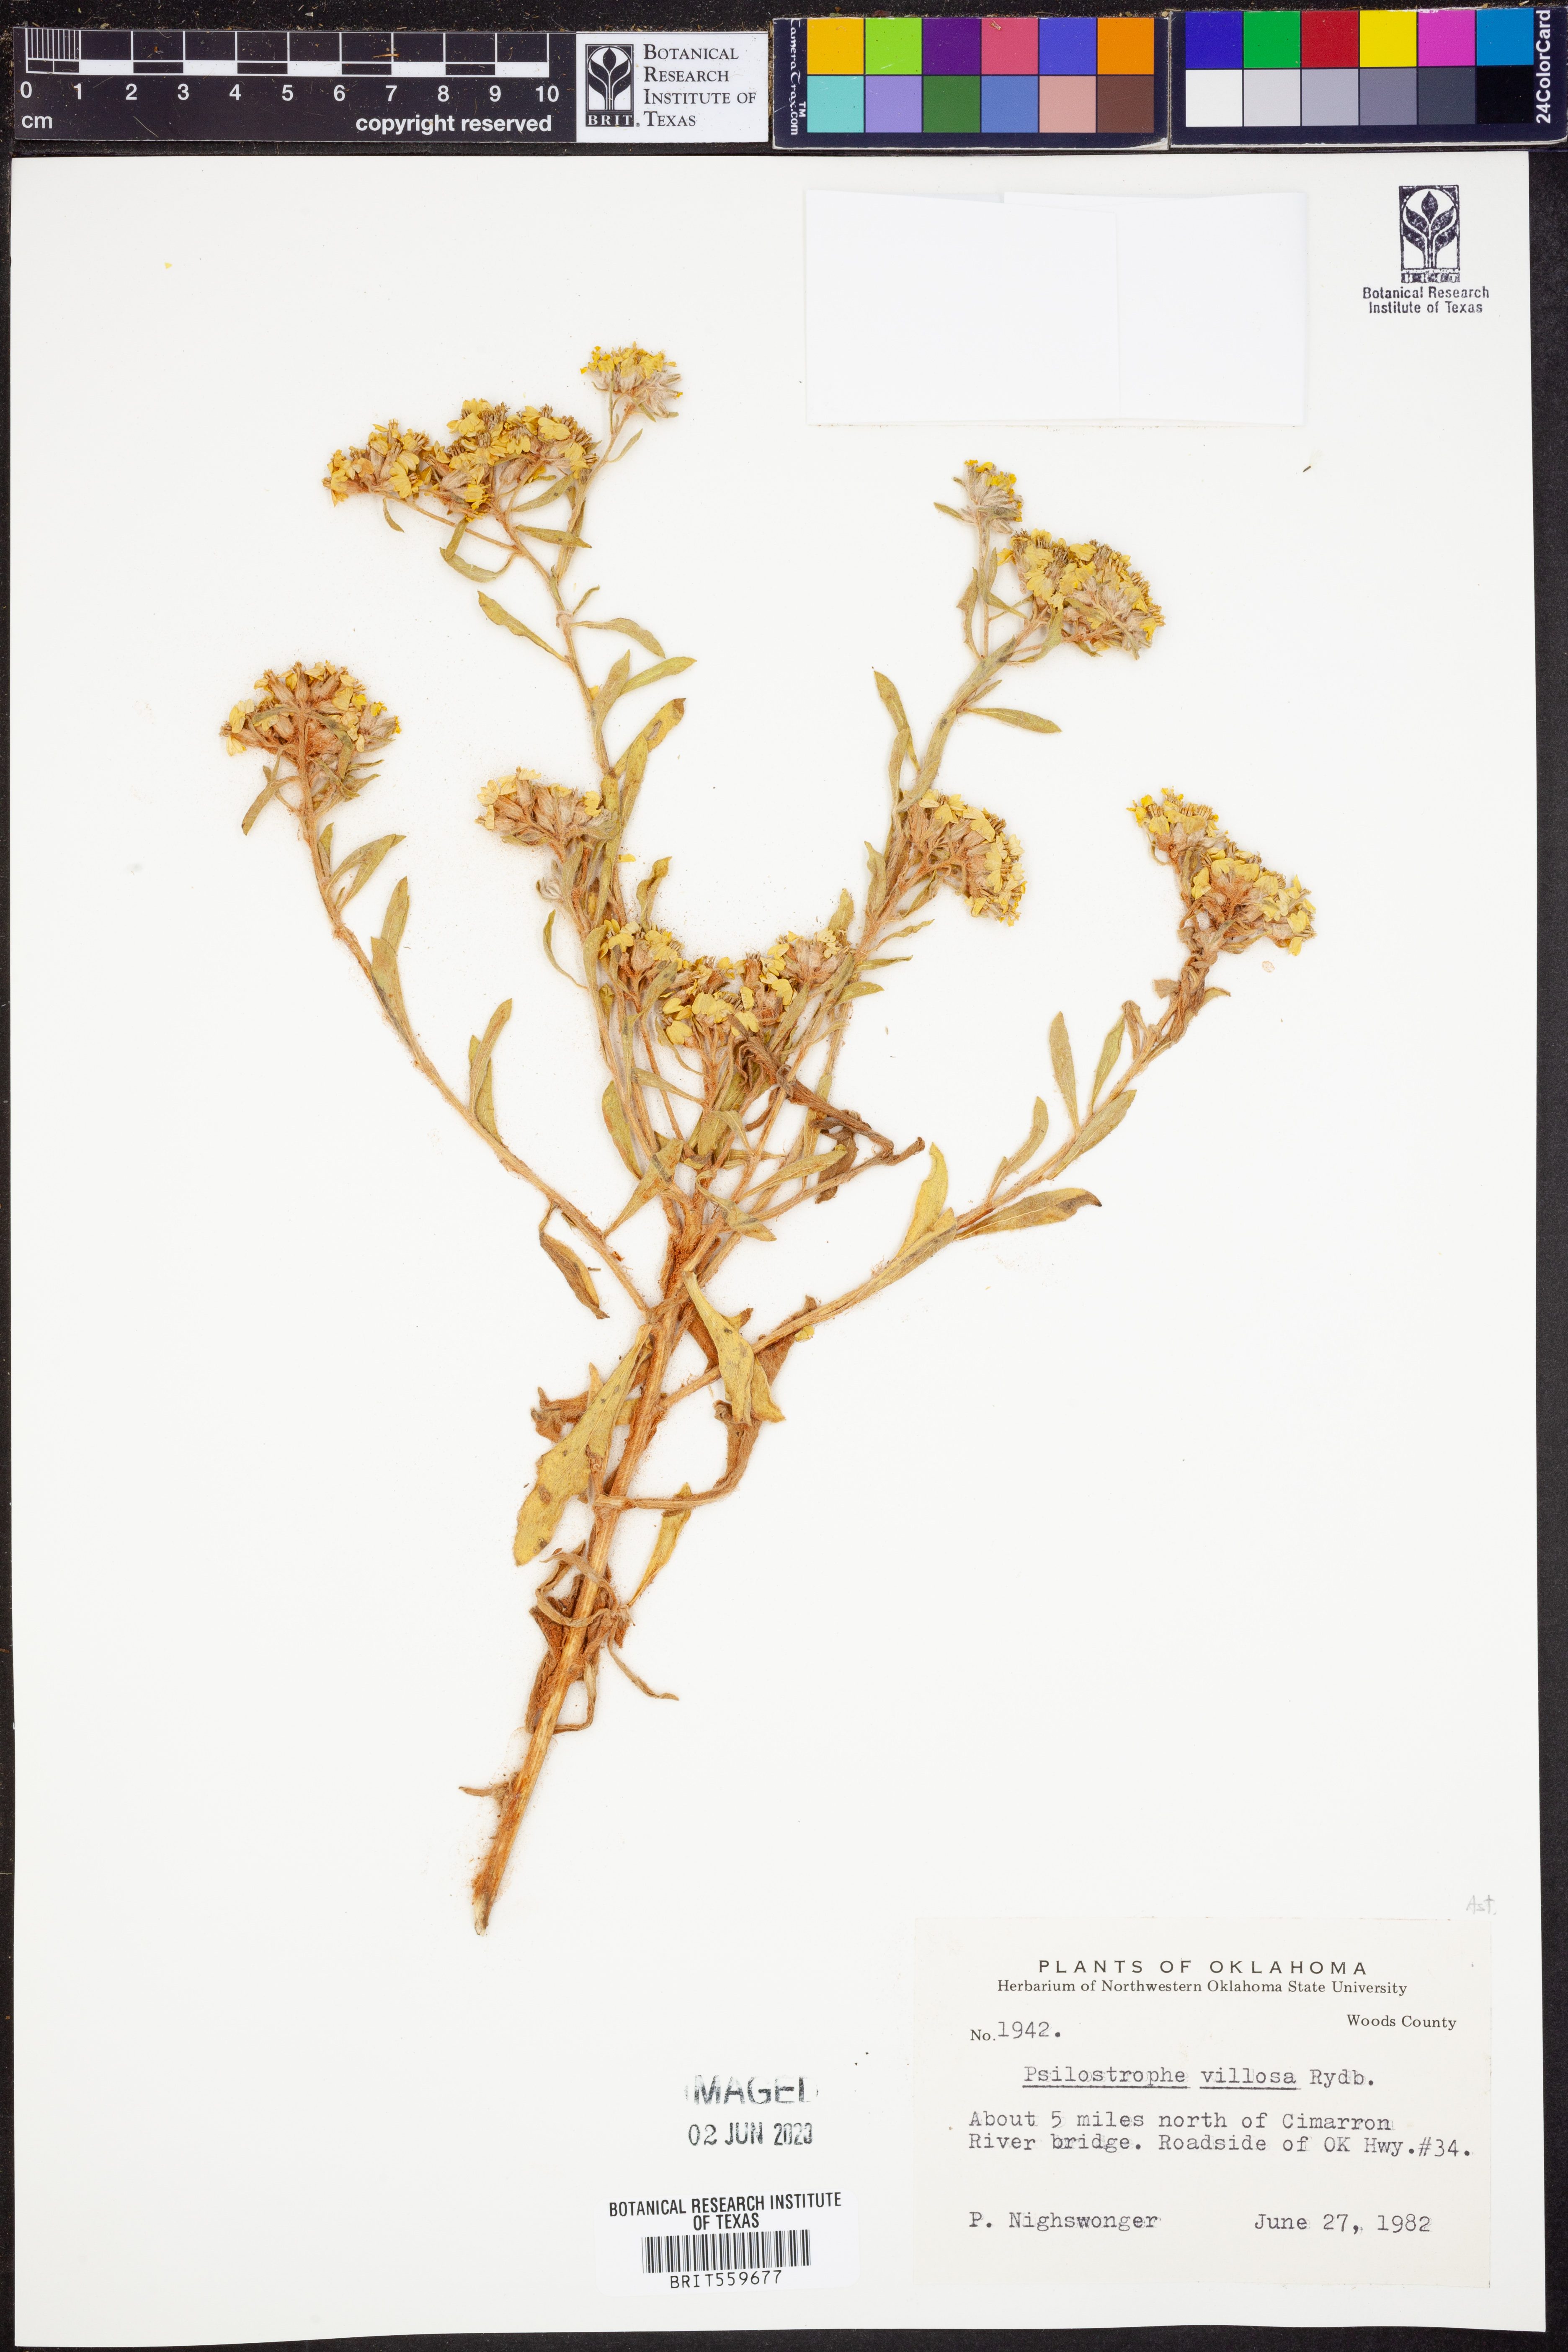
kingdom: Plantae
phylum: Tracheophyta
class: Magnoliopsida
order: Asterales
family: Asteraceae
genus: Psilostrophe
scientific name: Psilostrophe villosa
